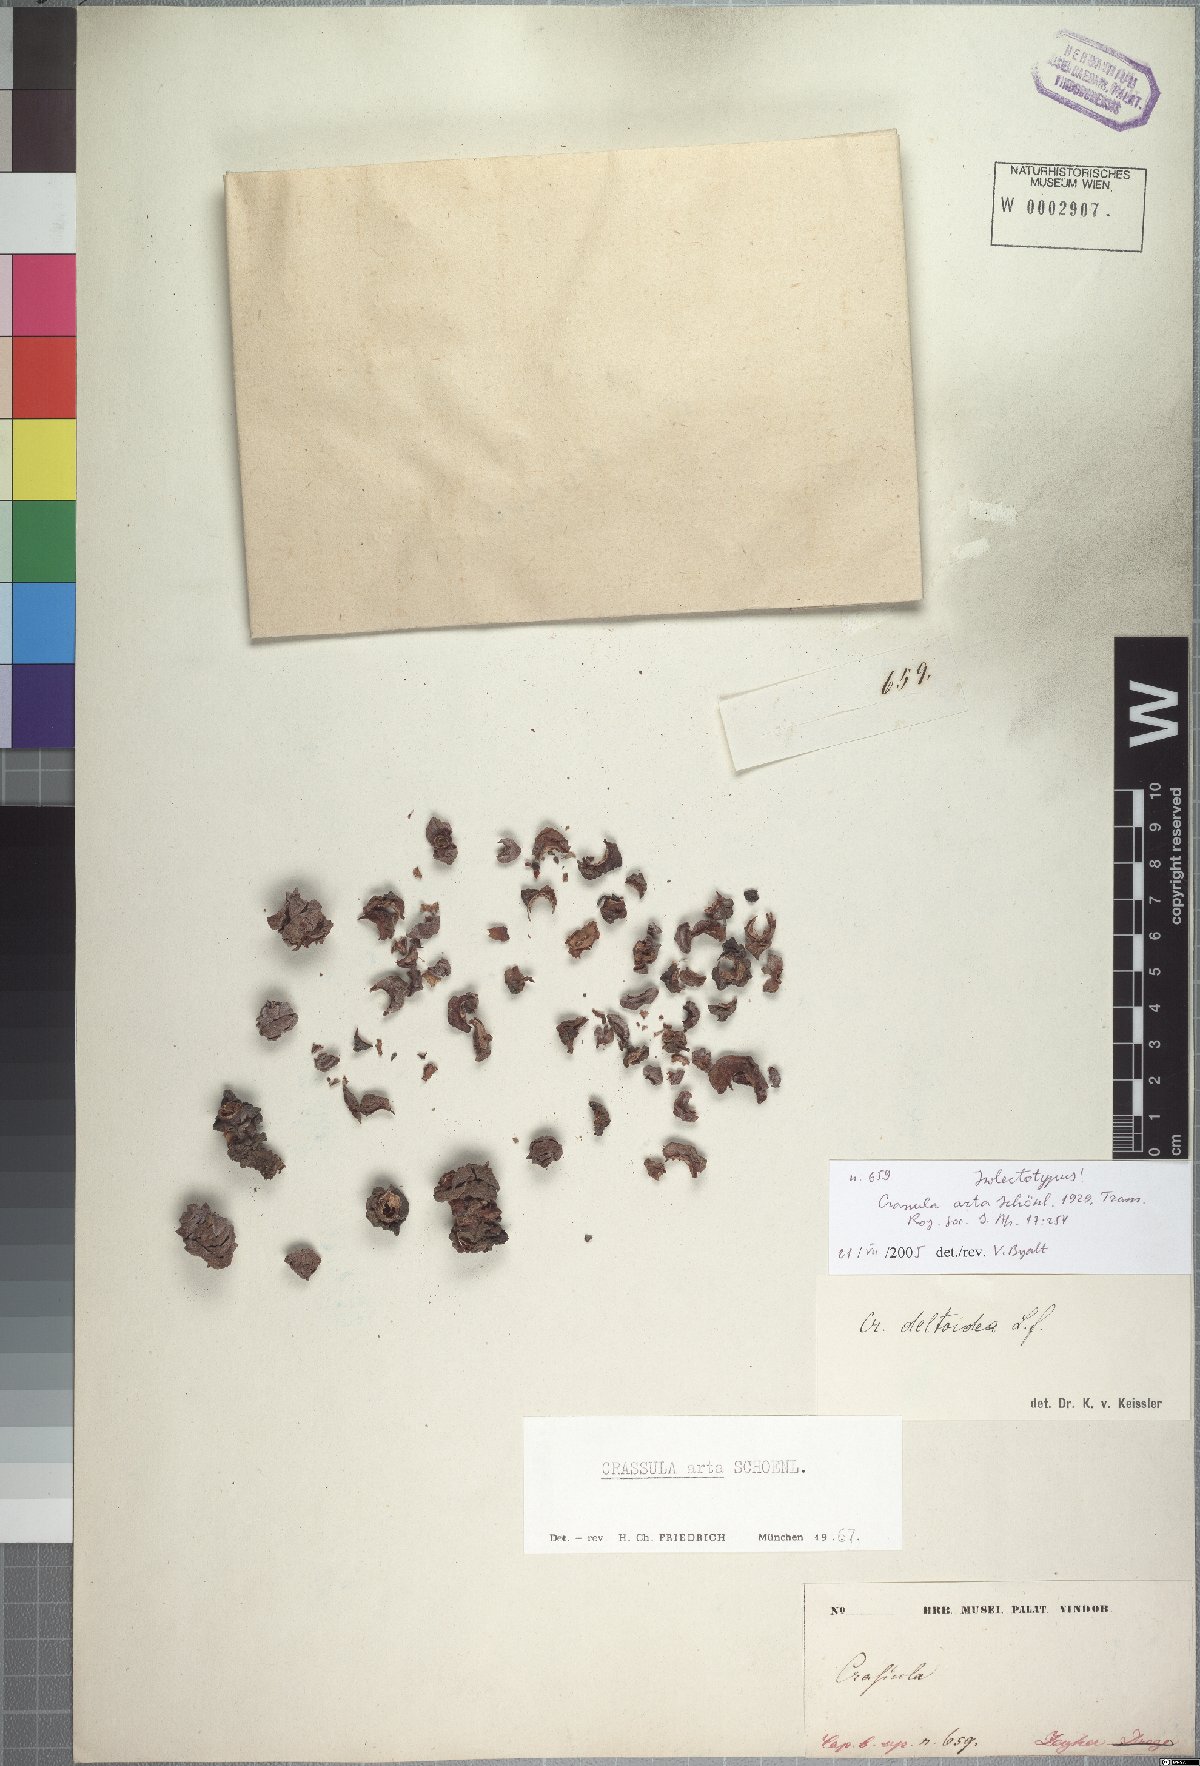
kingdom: Plantae
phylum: Tracheophyta
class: Magnoliopsida
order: Saxifragales
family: Crassulaceae
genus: Crassula
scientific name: Crassula deceptor
